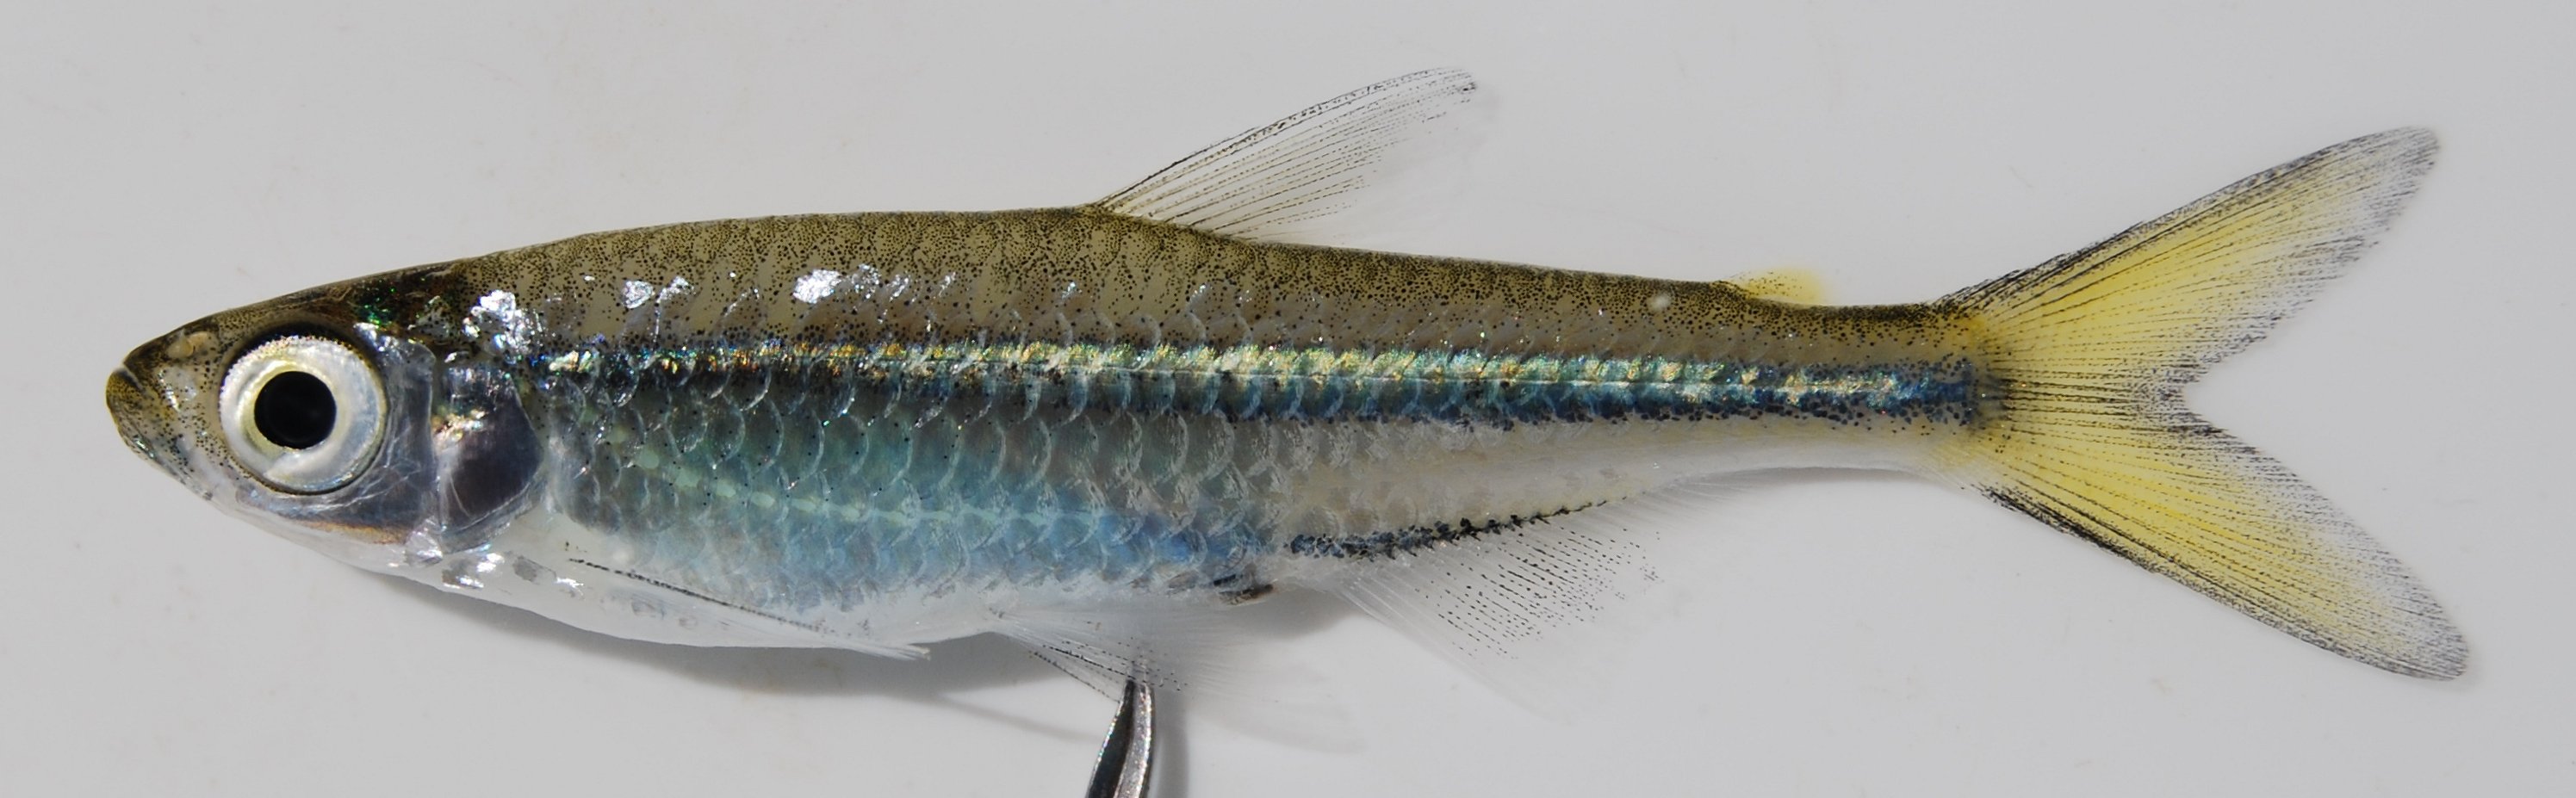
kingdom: Animalia
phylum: Chordata
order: Characiformes
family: Alestidae
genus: Rhabdalestes
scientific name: Rhabdalestes maunensis
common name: Slender robber
